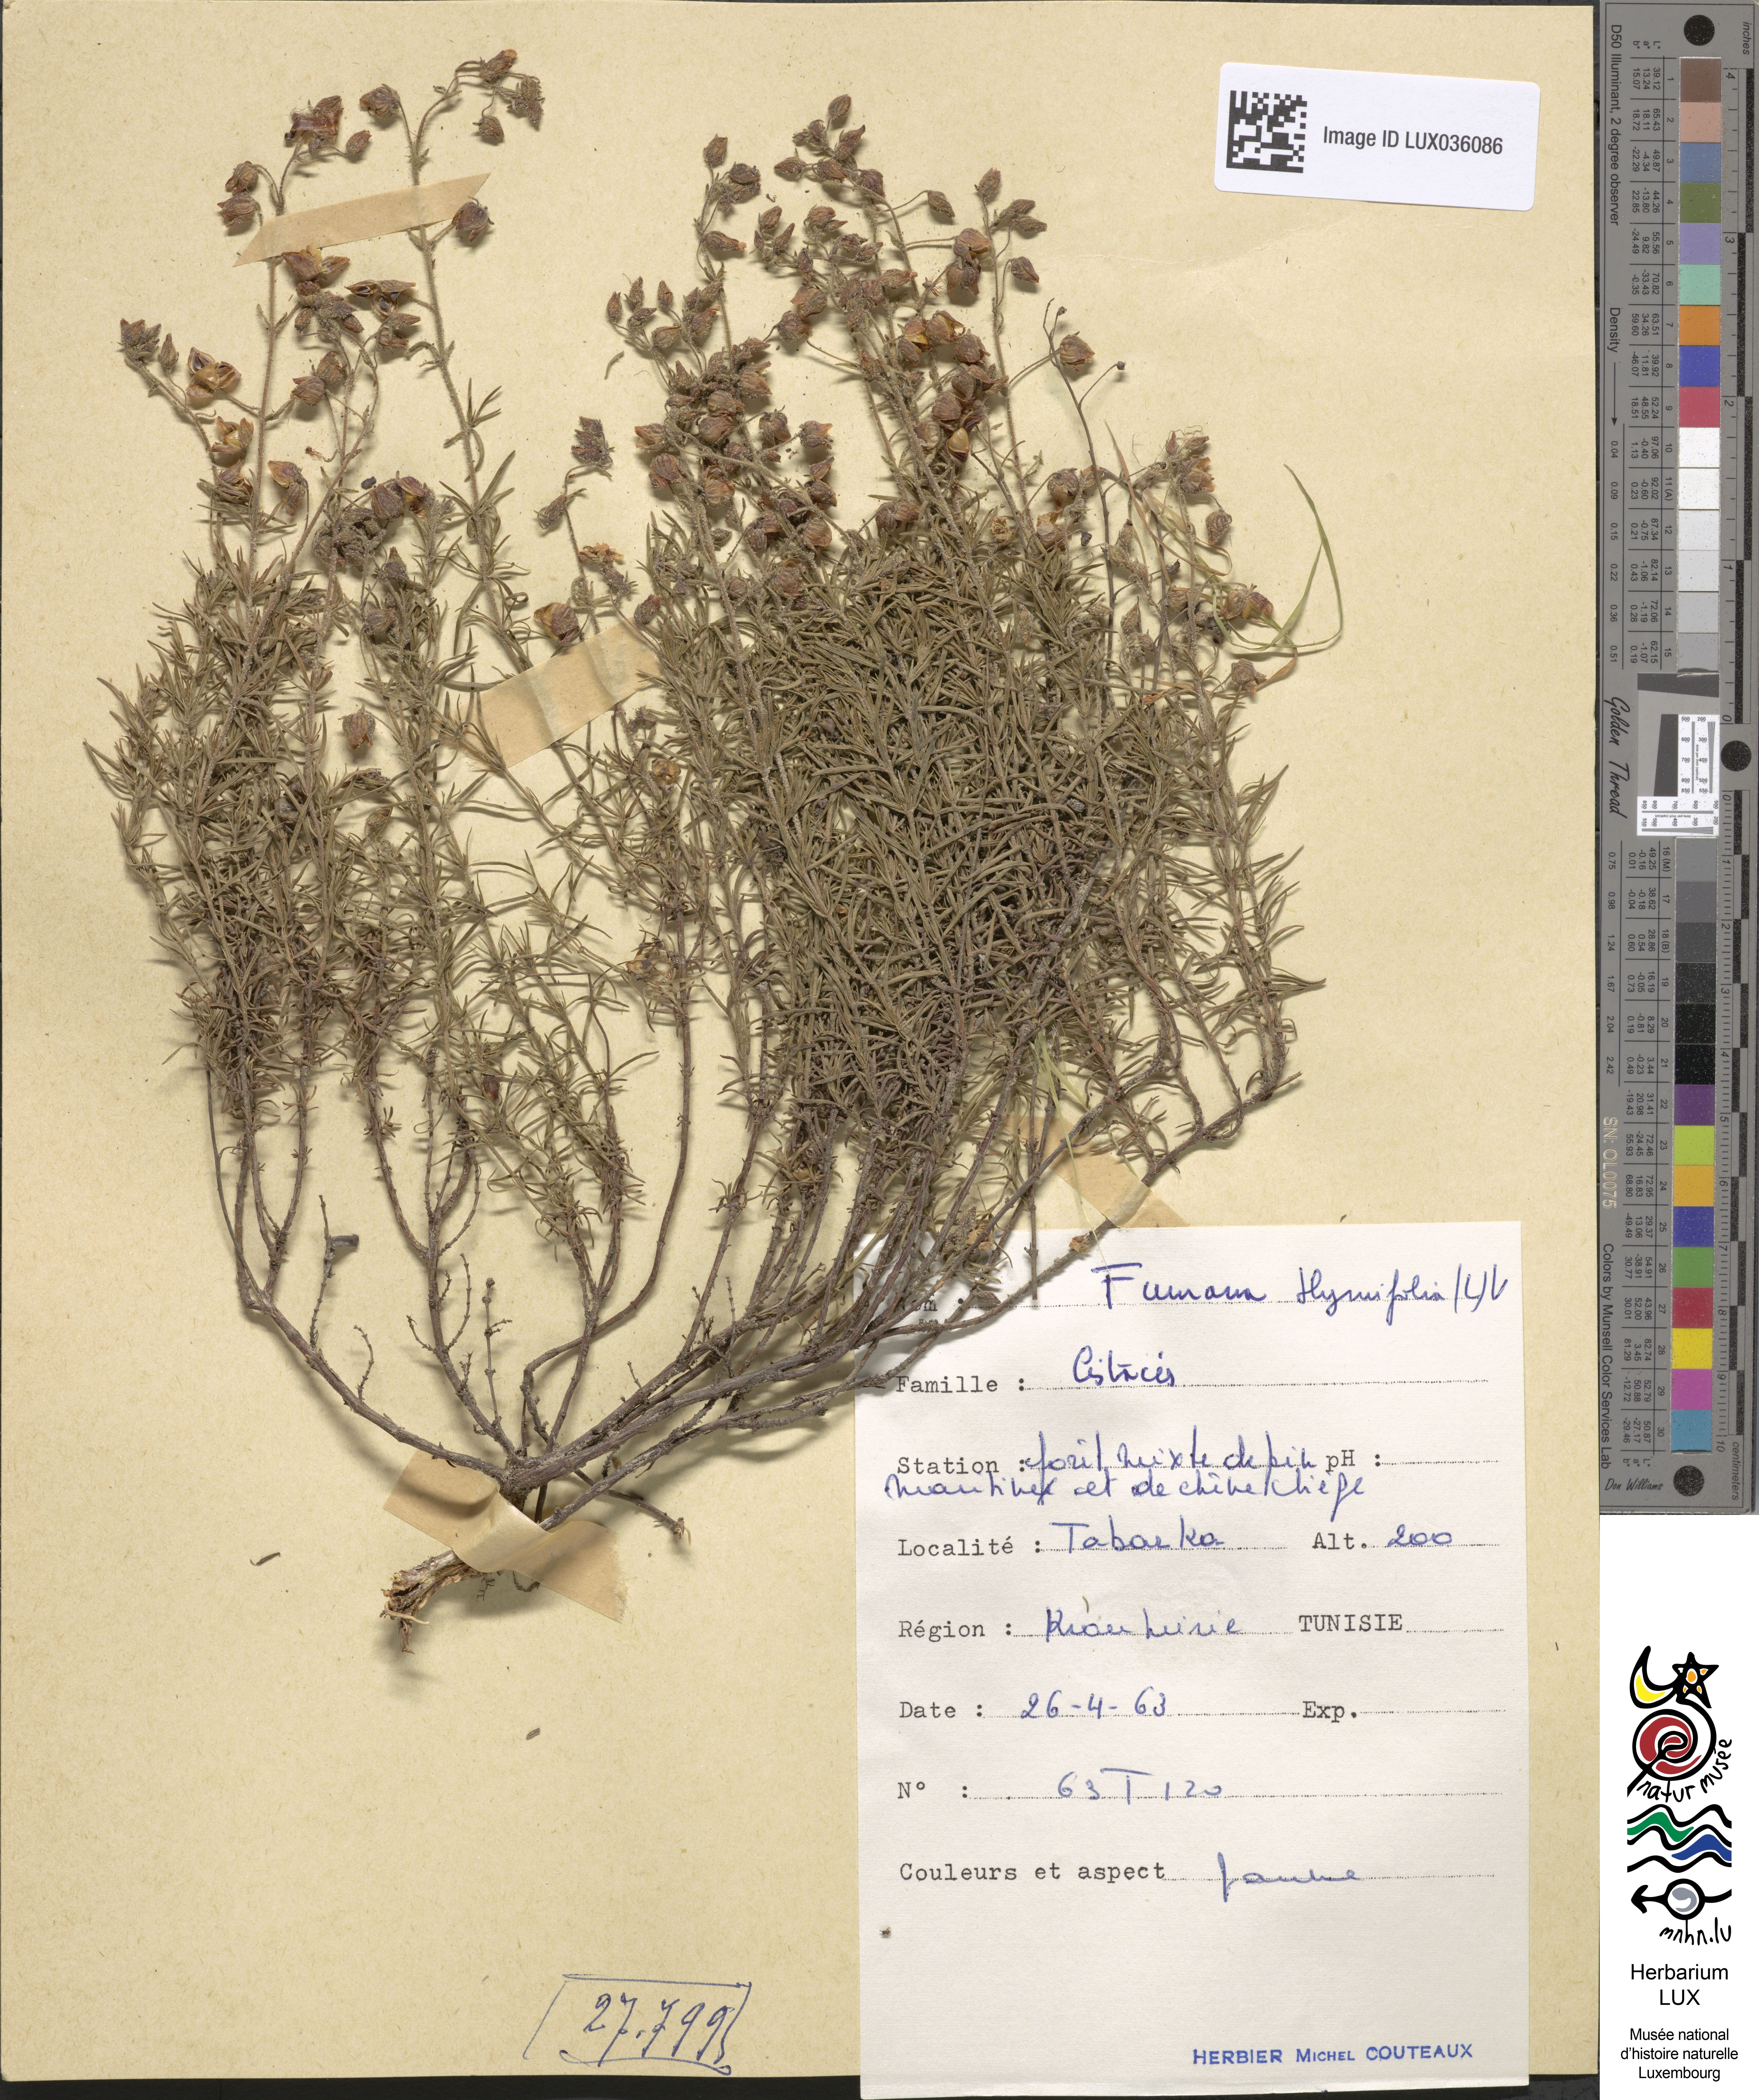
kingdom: Plantae
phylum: Tracheophyta
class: Magnoliopsida
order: Malvales
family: Cistaceae
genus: Fumana
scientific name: Fumana thymifolia
